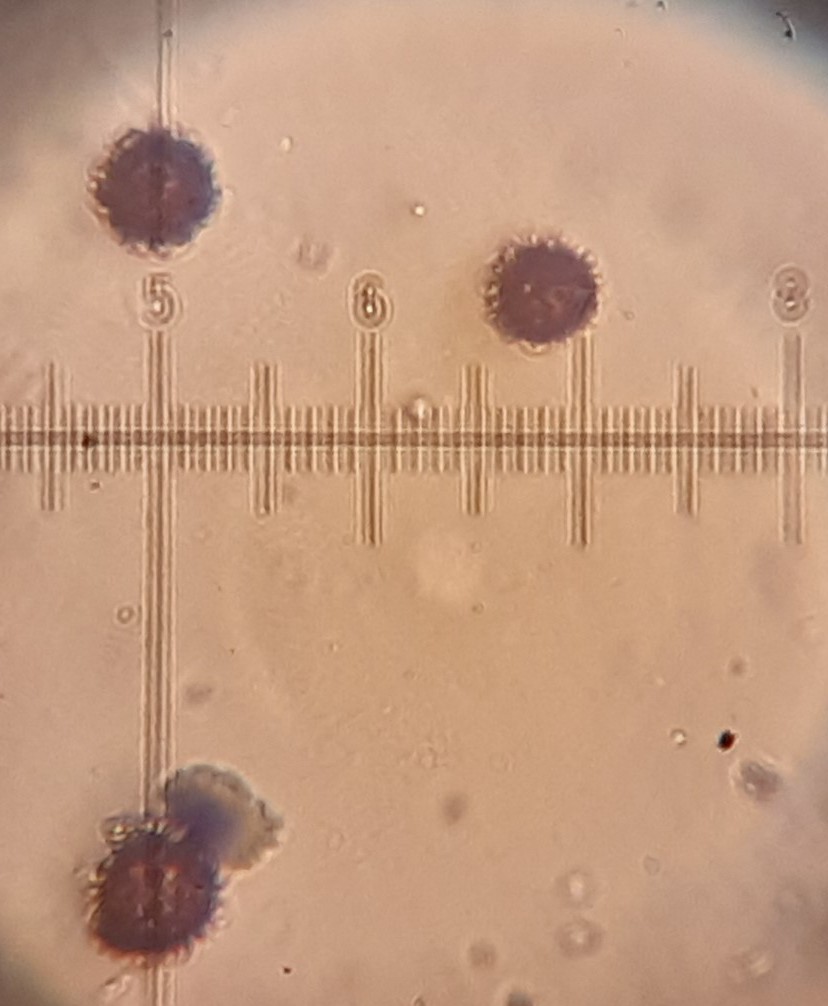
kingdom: Fungi
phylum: Basidiomycota
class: Agaricomycetes
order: Boletales
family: Sclerodermataceae
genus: Scleroderma
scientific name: Scleroderma areolatum
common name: plettet bruskbold
